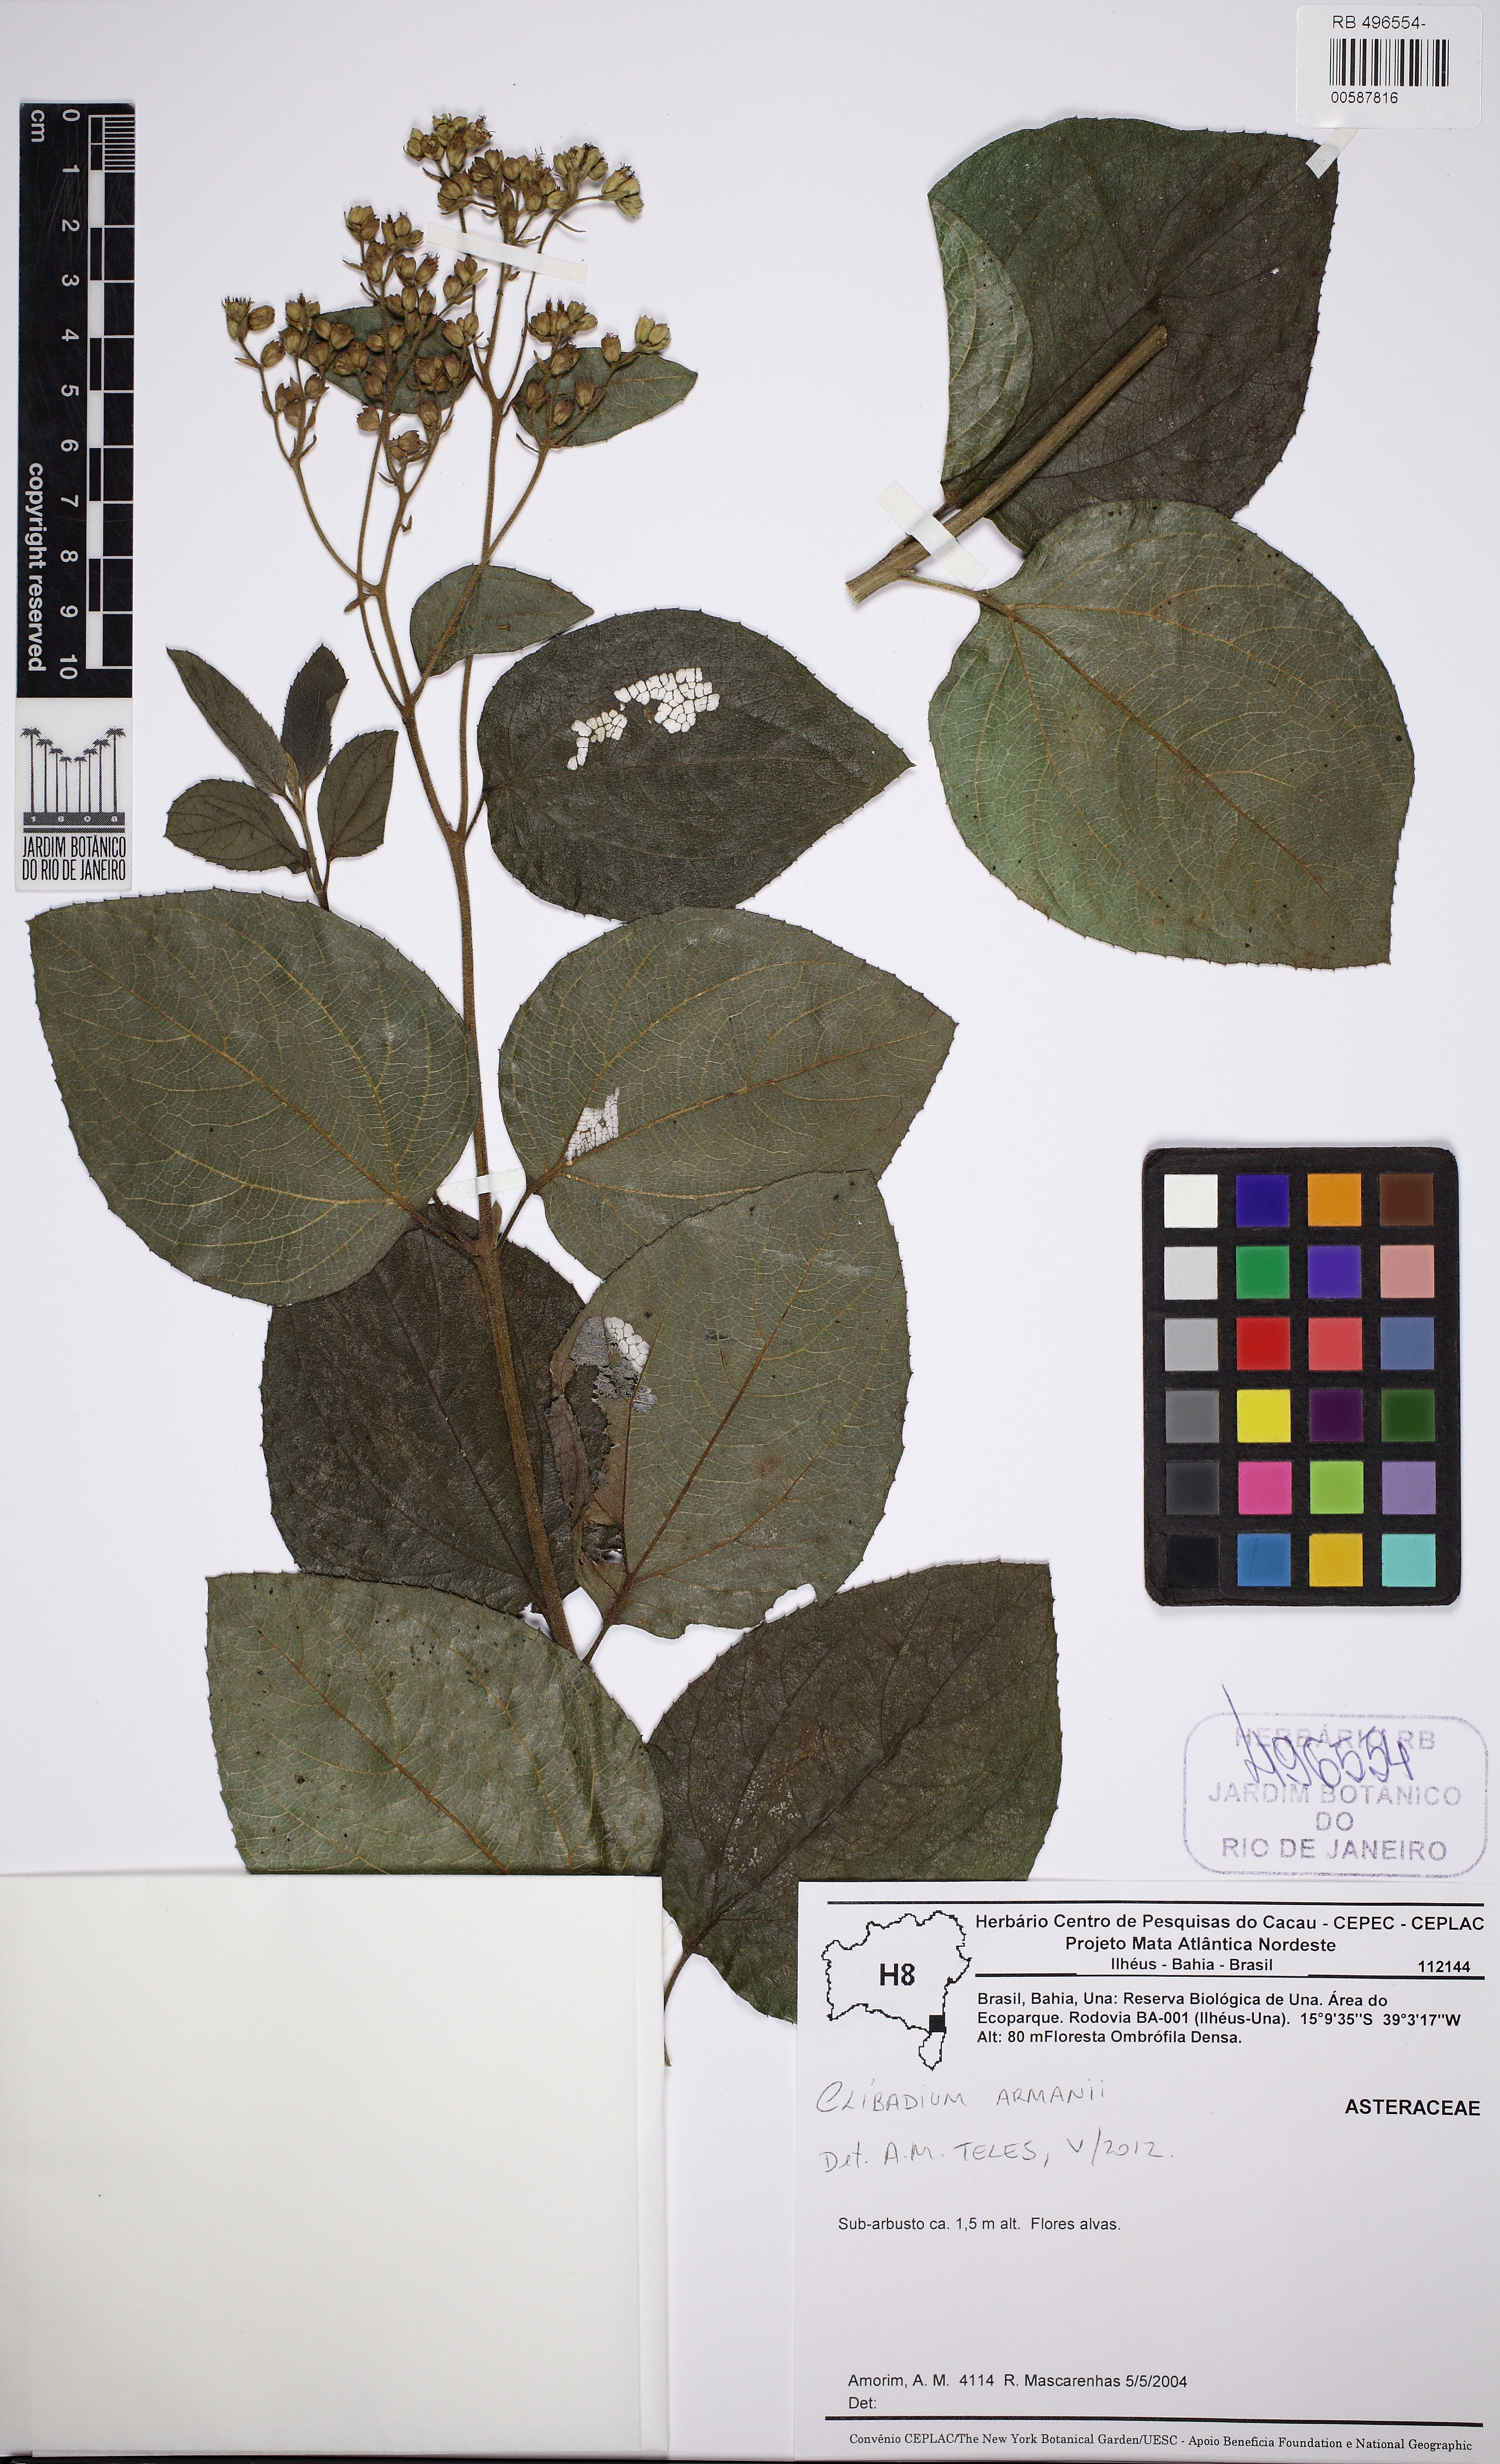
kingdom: Plantae
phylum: Tracheophyta
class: Magnoliopsida
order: Asterales
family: Asteraceae
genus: Clibadium
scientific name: Clibadium armanii
